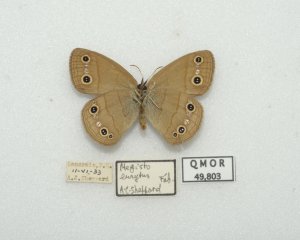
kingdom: Animalia
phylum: Arthropoda
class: Insecta
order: Lepidoptera
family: Nymphalidae
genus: Euptychia
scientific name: Euptychia cymela
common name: Little Wood Satyr
